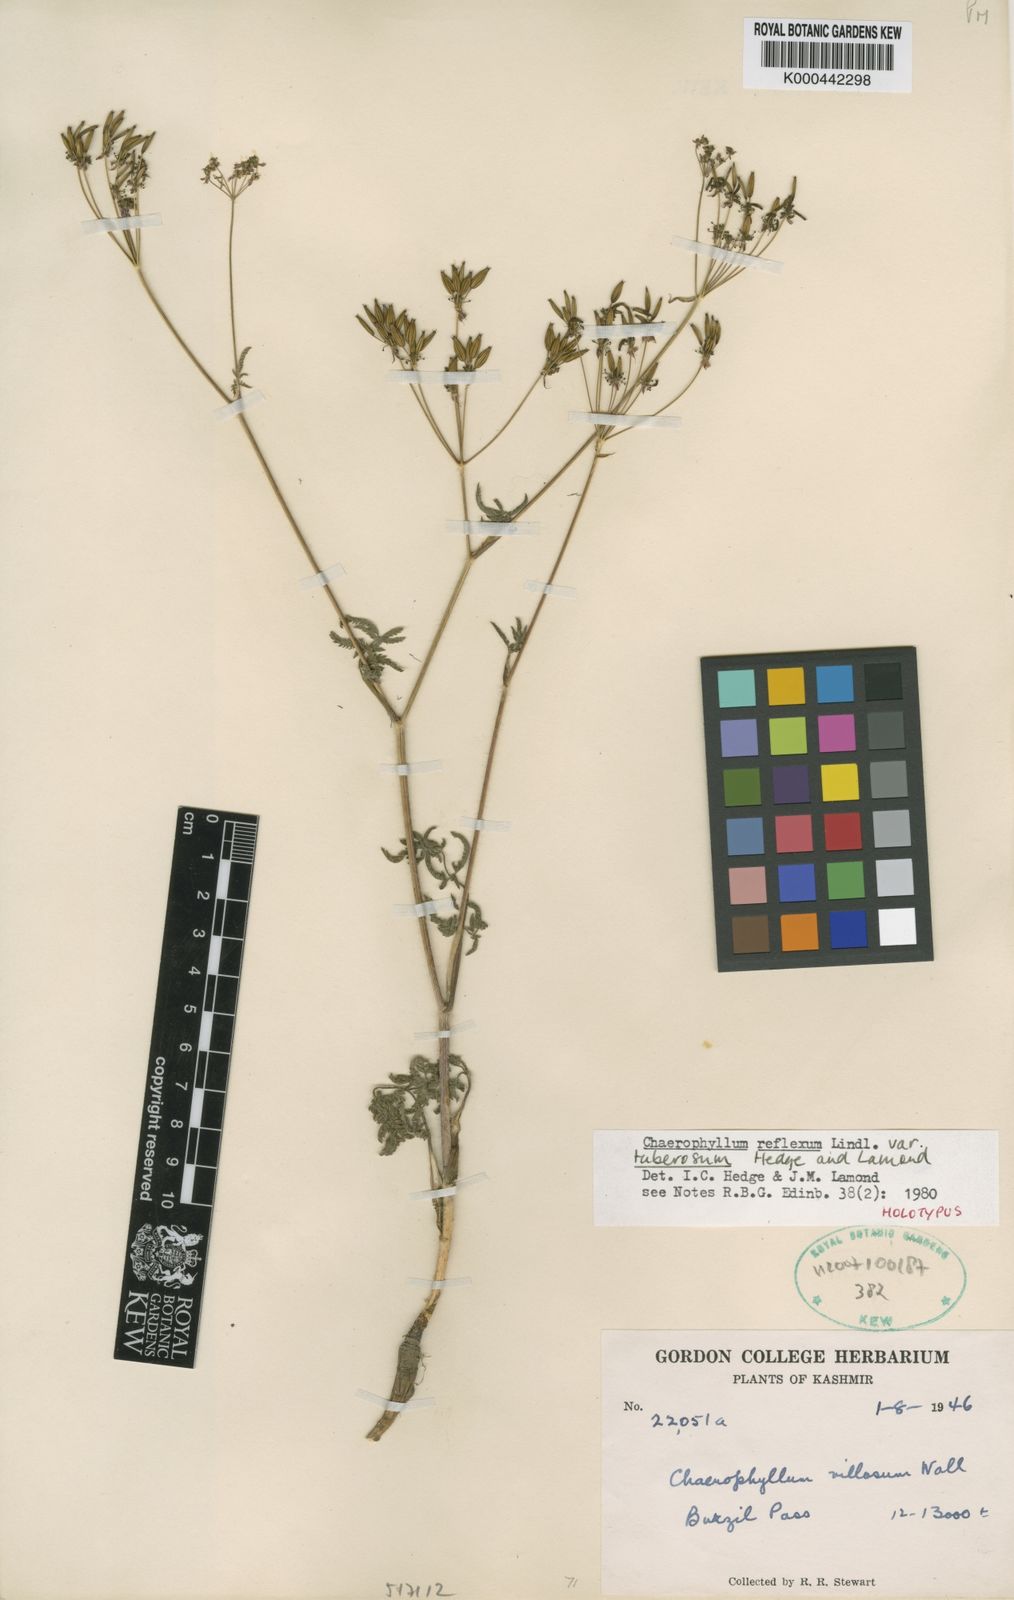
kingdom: Plantae
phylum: Tracheophyta
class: Magnoliopsida
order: Apiales
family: Apiaceae
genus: Chaerophyllum
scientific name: Chaerophyllum reflexum
